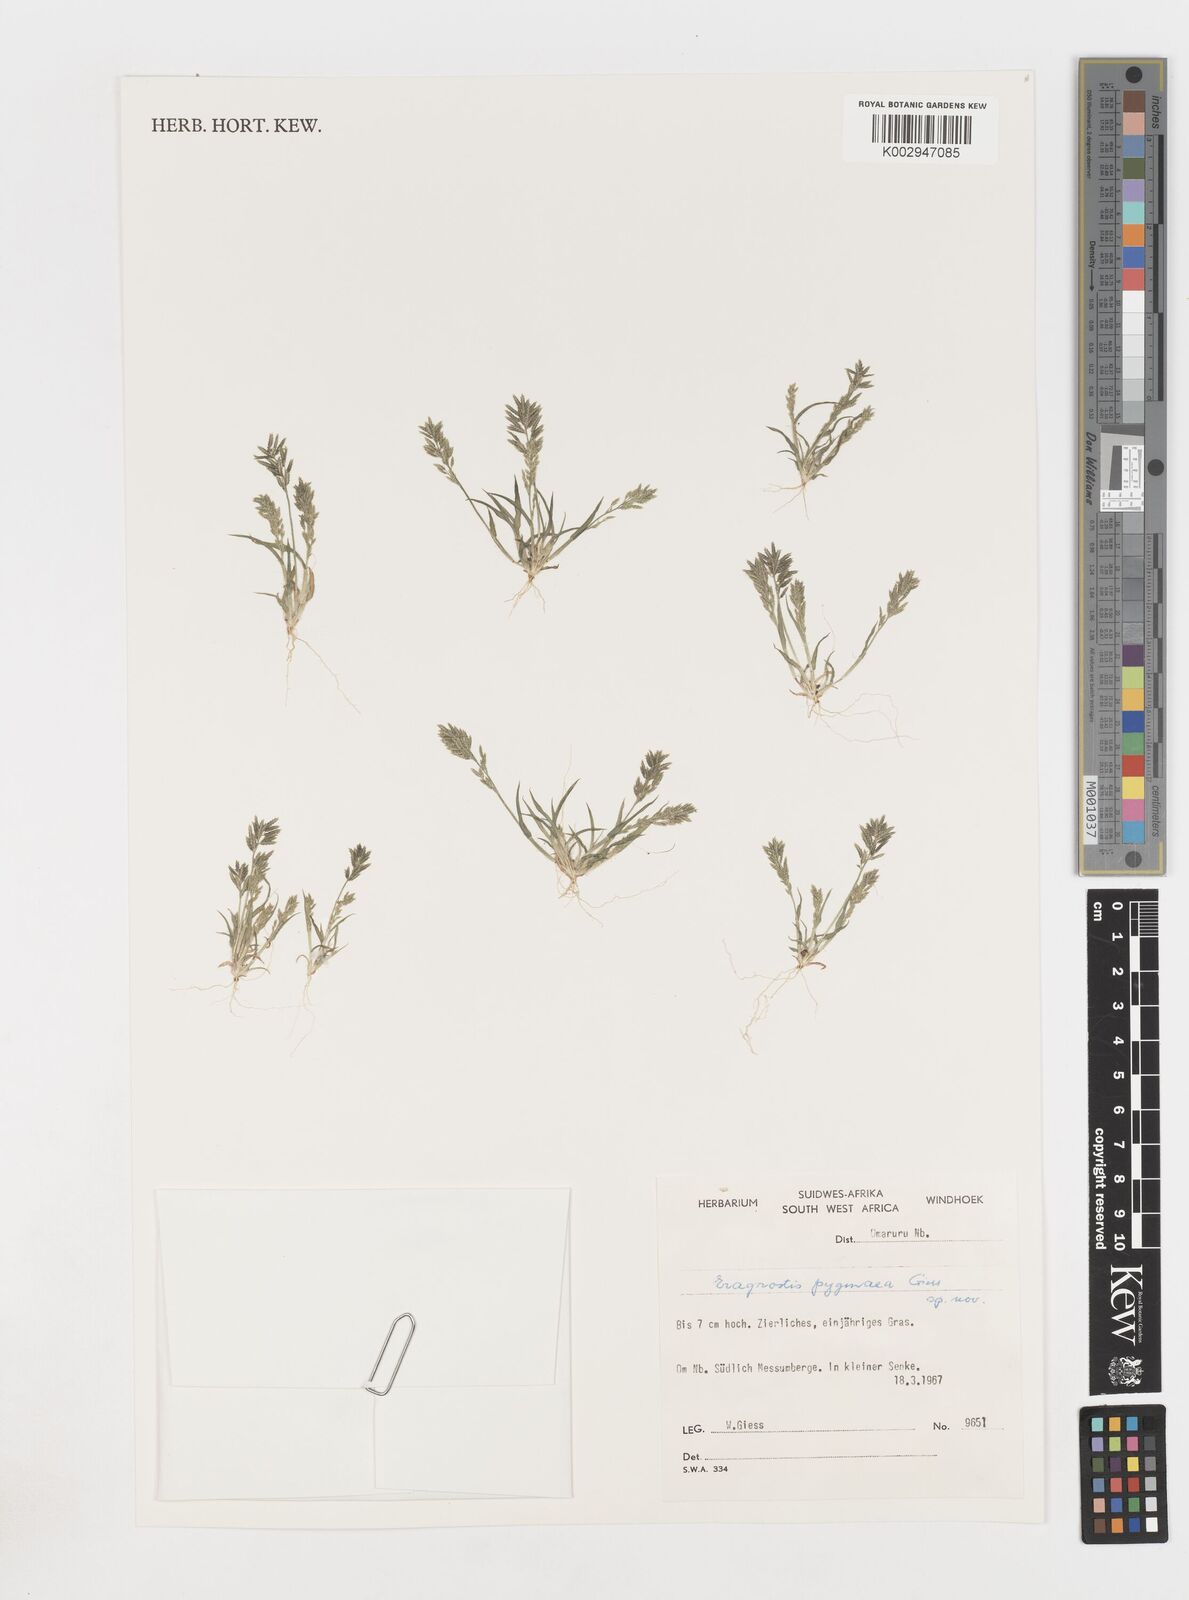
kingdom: Plantae
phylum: Tracheophyta
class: Liliopsida
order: Poales
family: Poaceae
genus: Eragrostis
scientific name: Eragrostis pygmaea
